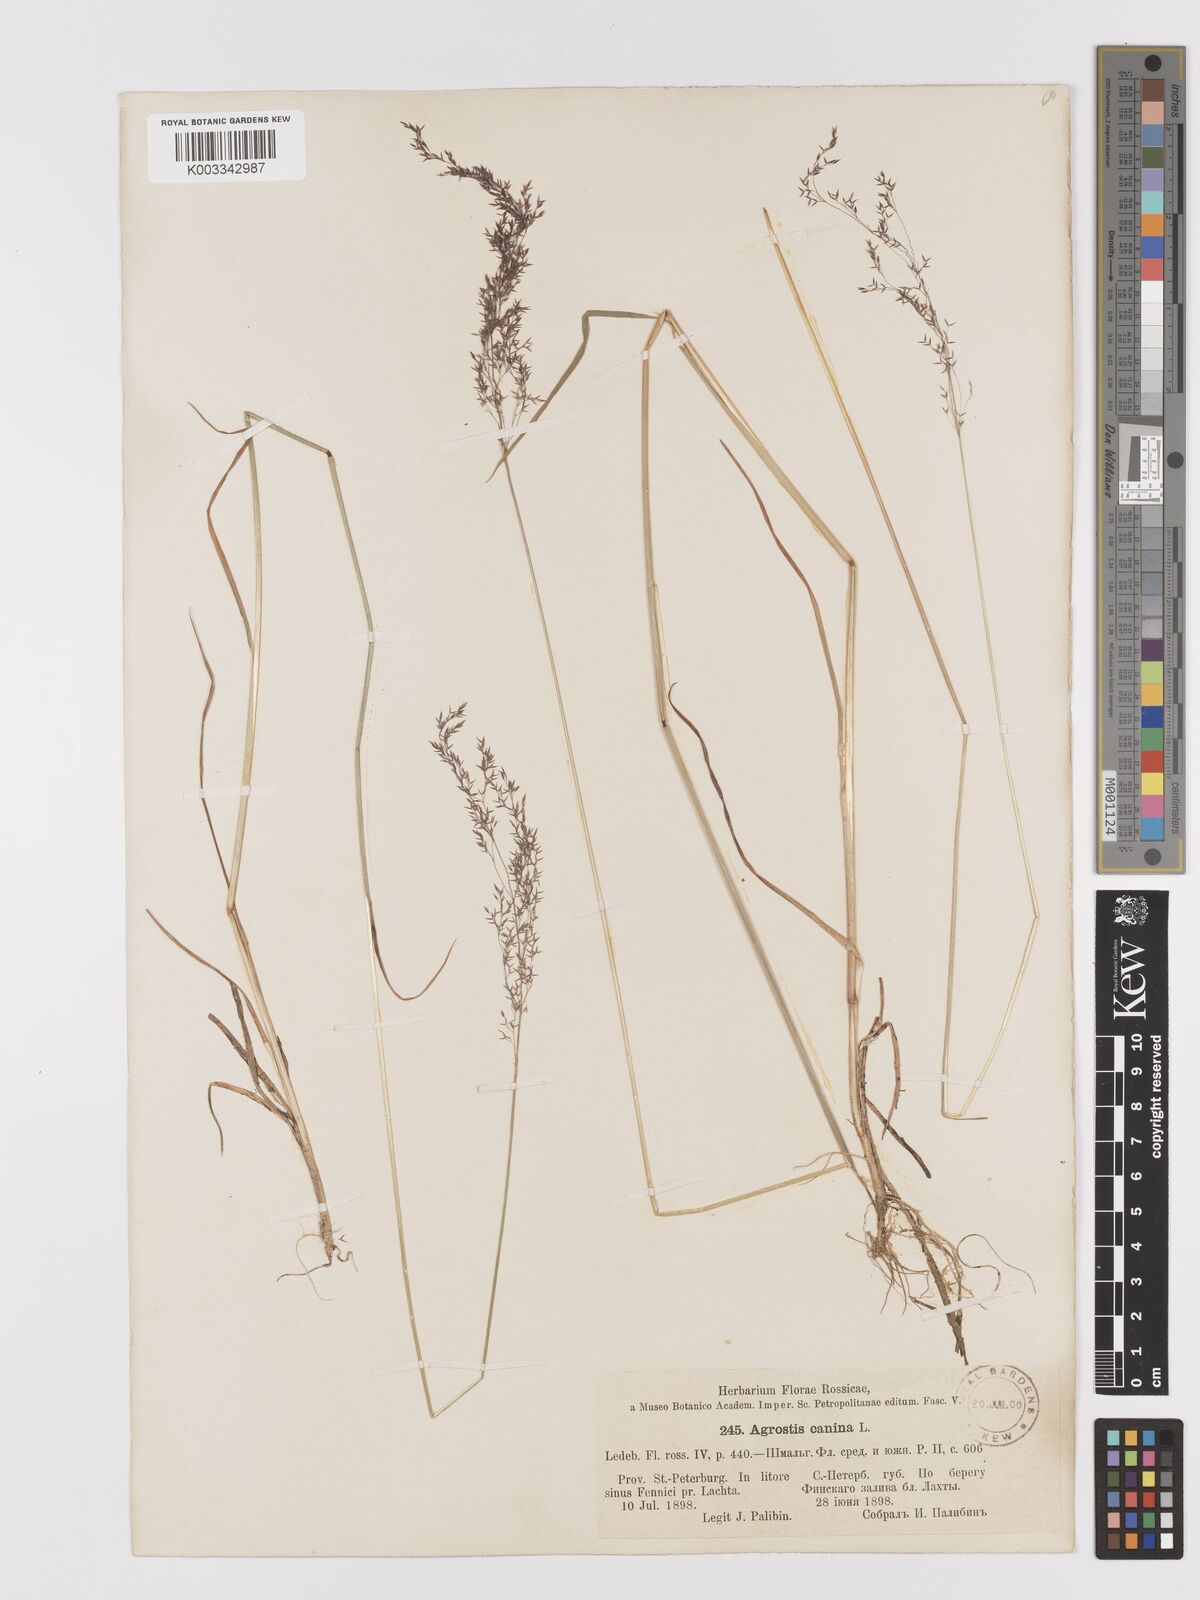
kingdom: Plantae
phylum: Tracheophyta
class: Liliopsida
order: Poales
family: Poaceae
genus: Agrostis
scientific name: Agrostis canina
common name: Velvet bent
